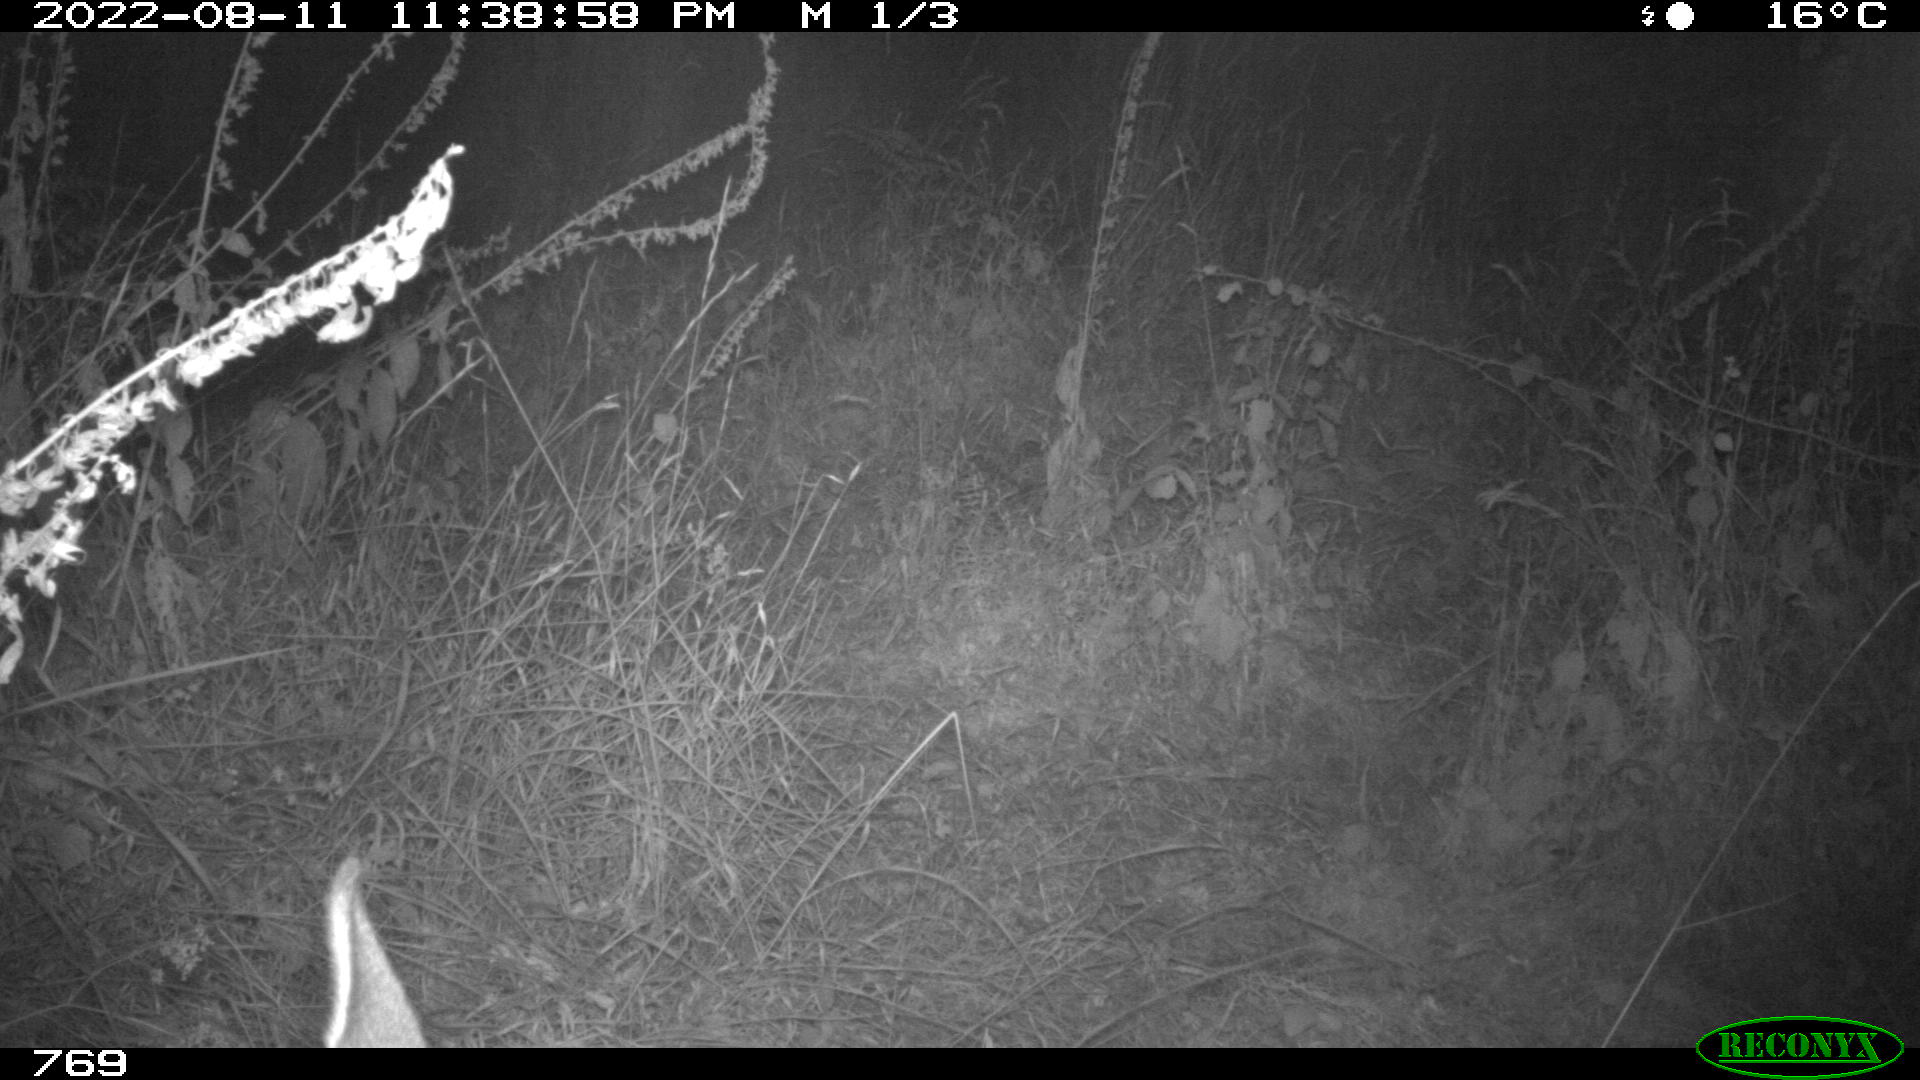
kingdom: Animalia
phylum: Chordata
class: Mammalia
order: Artiodactyla
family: Cervidae
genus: Capreolus
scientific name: Capreolus capreolus
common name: Western roe deer
